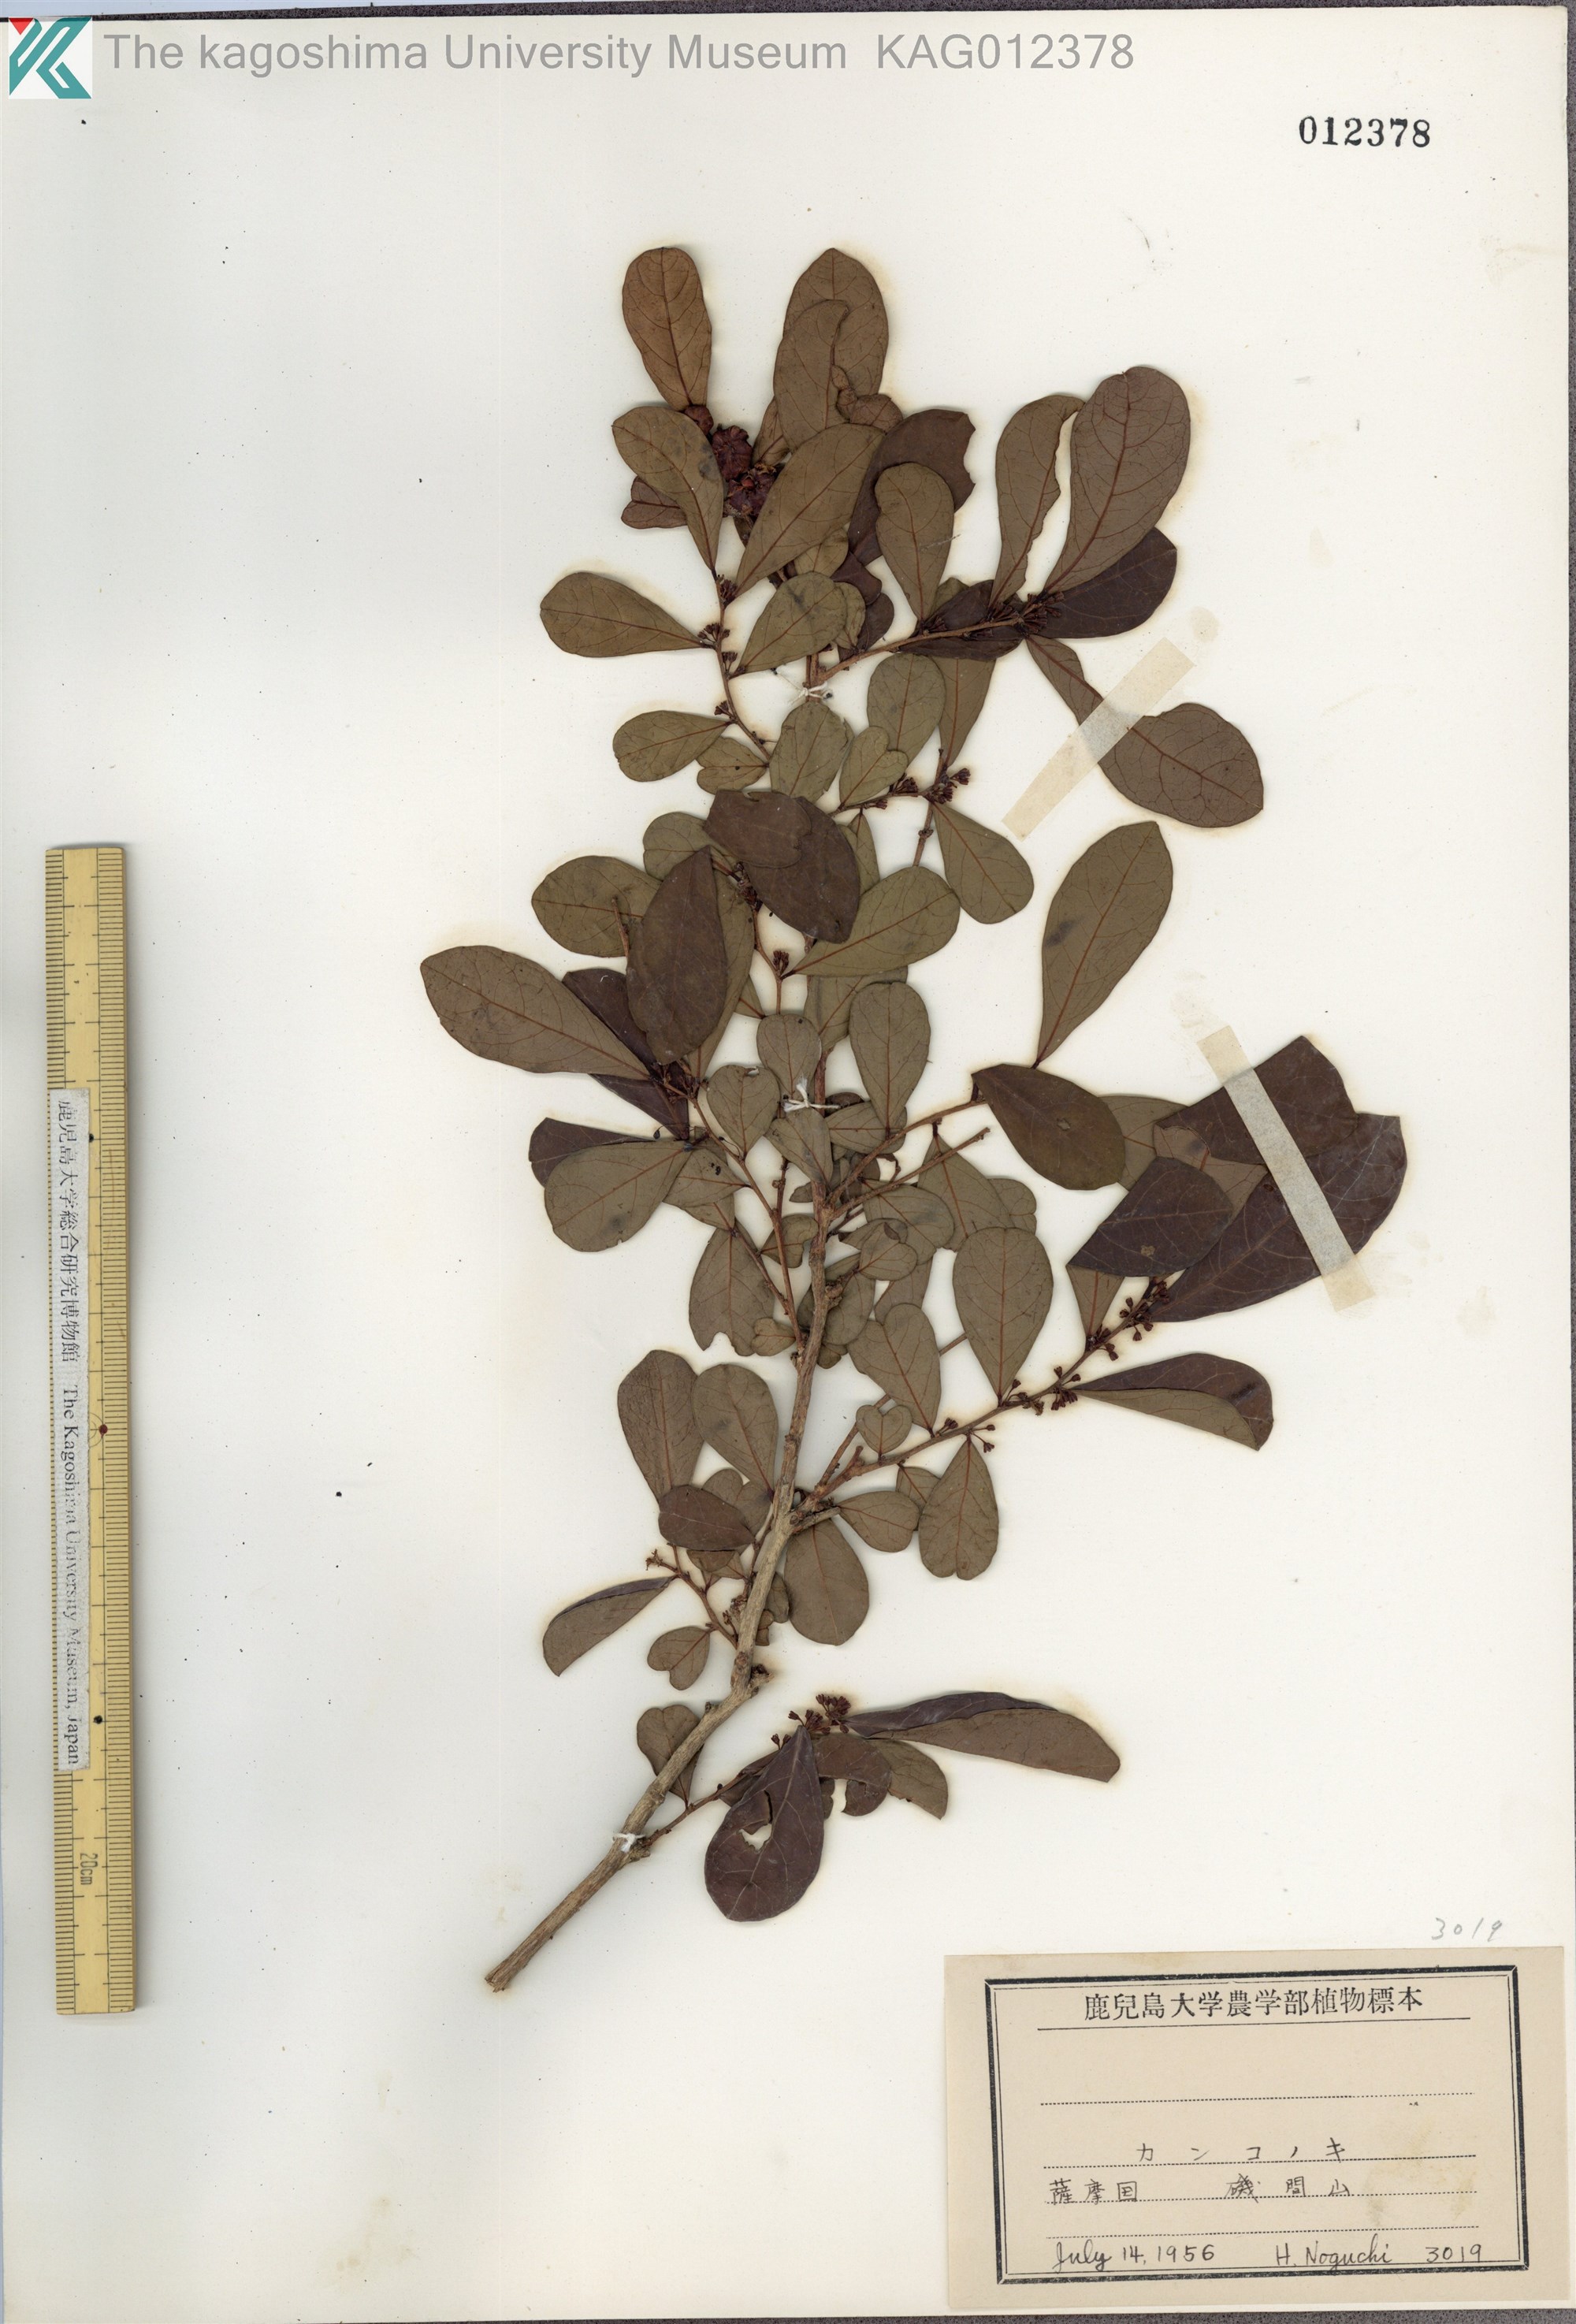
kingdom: Plantae
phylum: Tracheophyta
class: Magnoliopsida
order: Malpighiales
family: Phyllanthaceae
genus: Glochidion
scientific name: Glochidion obovatum
